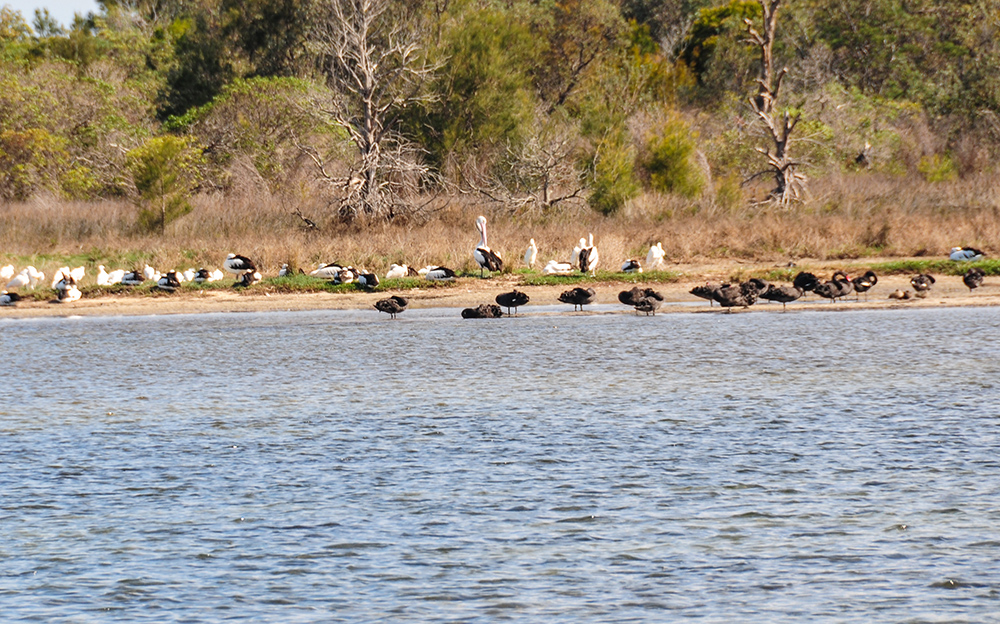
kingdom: Animalia
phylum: Chordata
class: Aves
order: Anseriformes
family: Anatidae
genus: Cygnus
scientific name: Cygnus atratus
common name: Black swan
